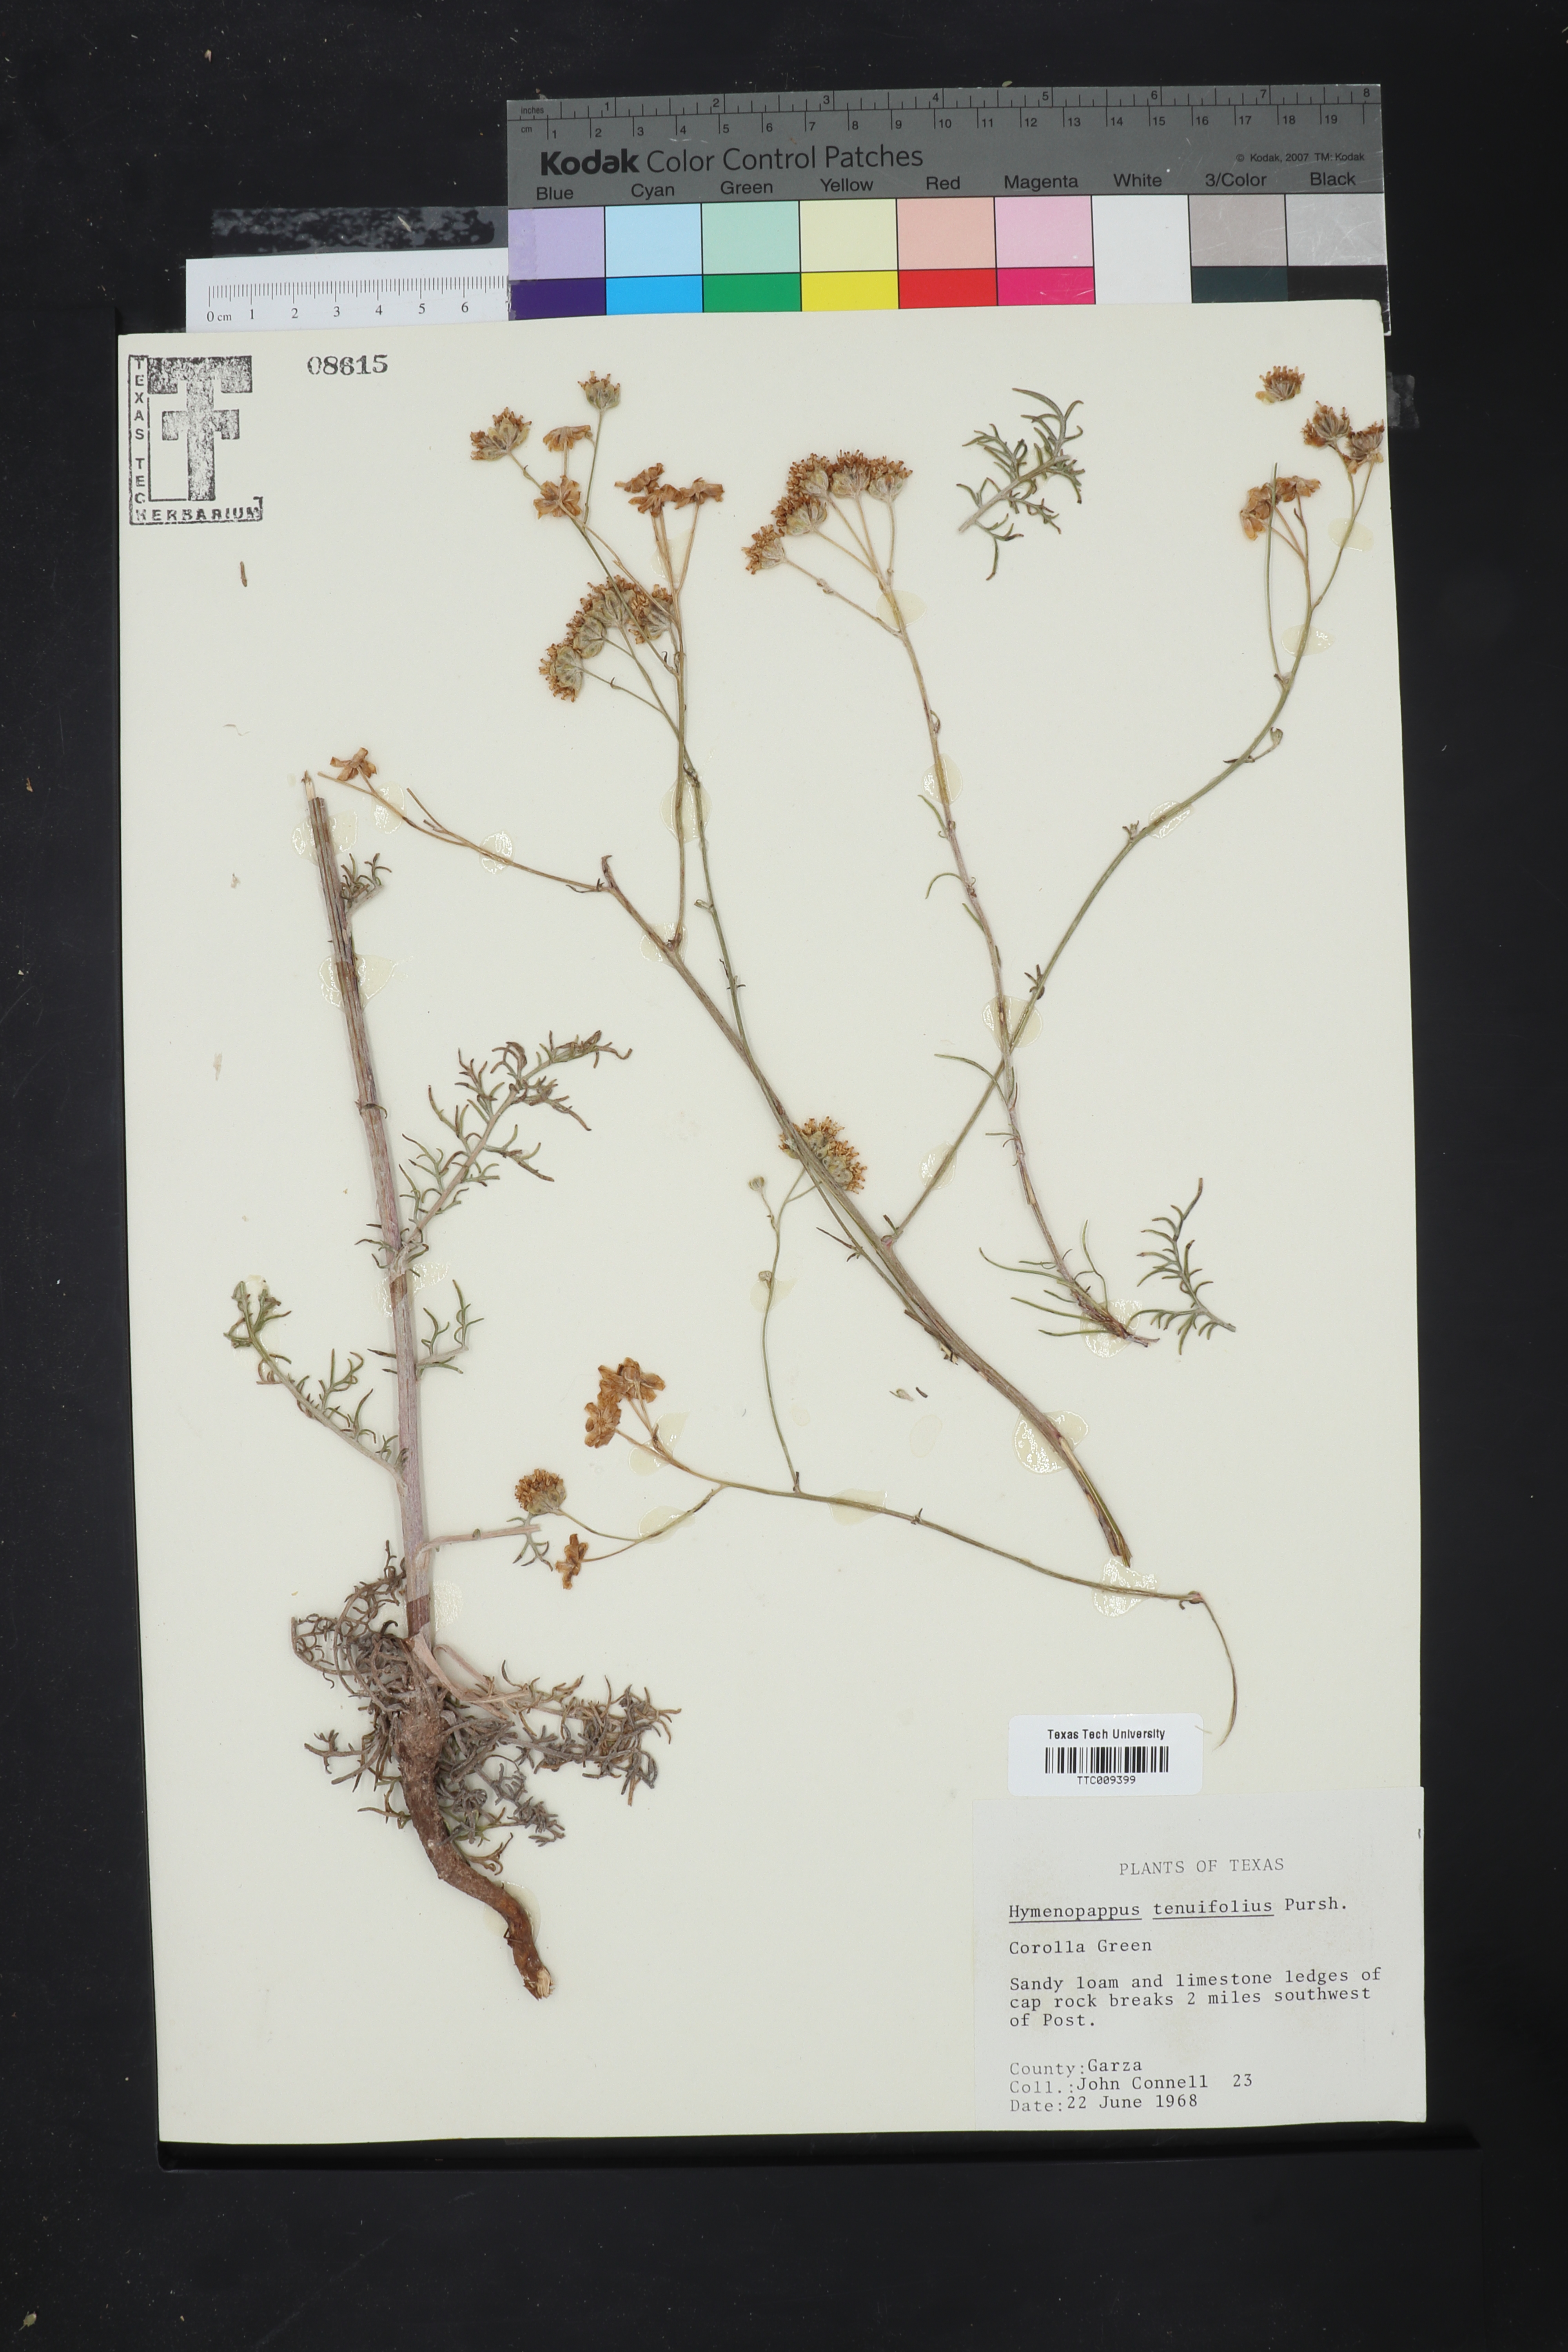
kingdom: Plantae
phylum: Tracheophyta
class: Magnoliopsida
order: Asterales
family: Asteraceae
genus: Hymenopappus
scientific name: Hymenopappus tenuifolius
